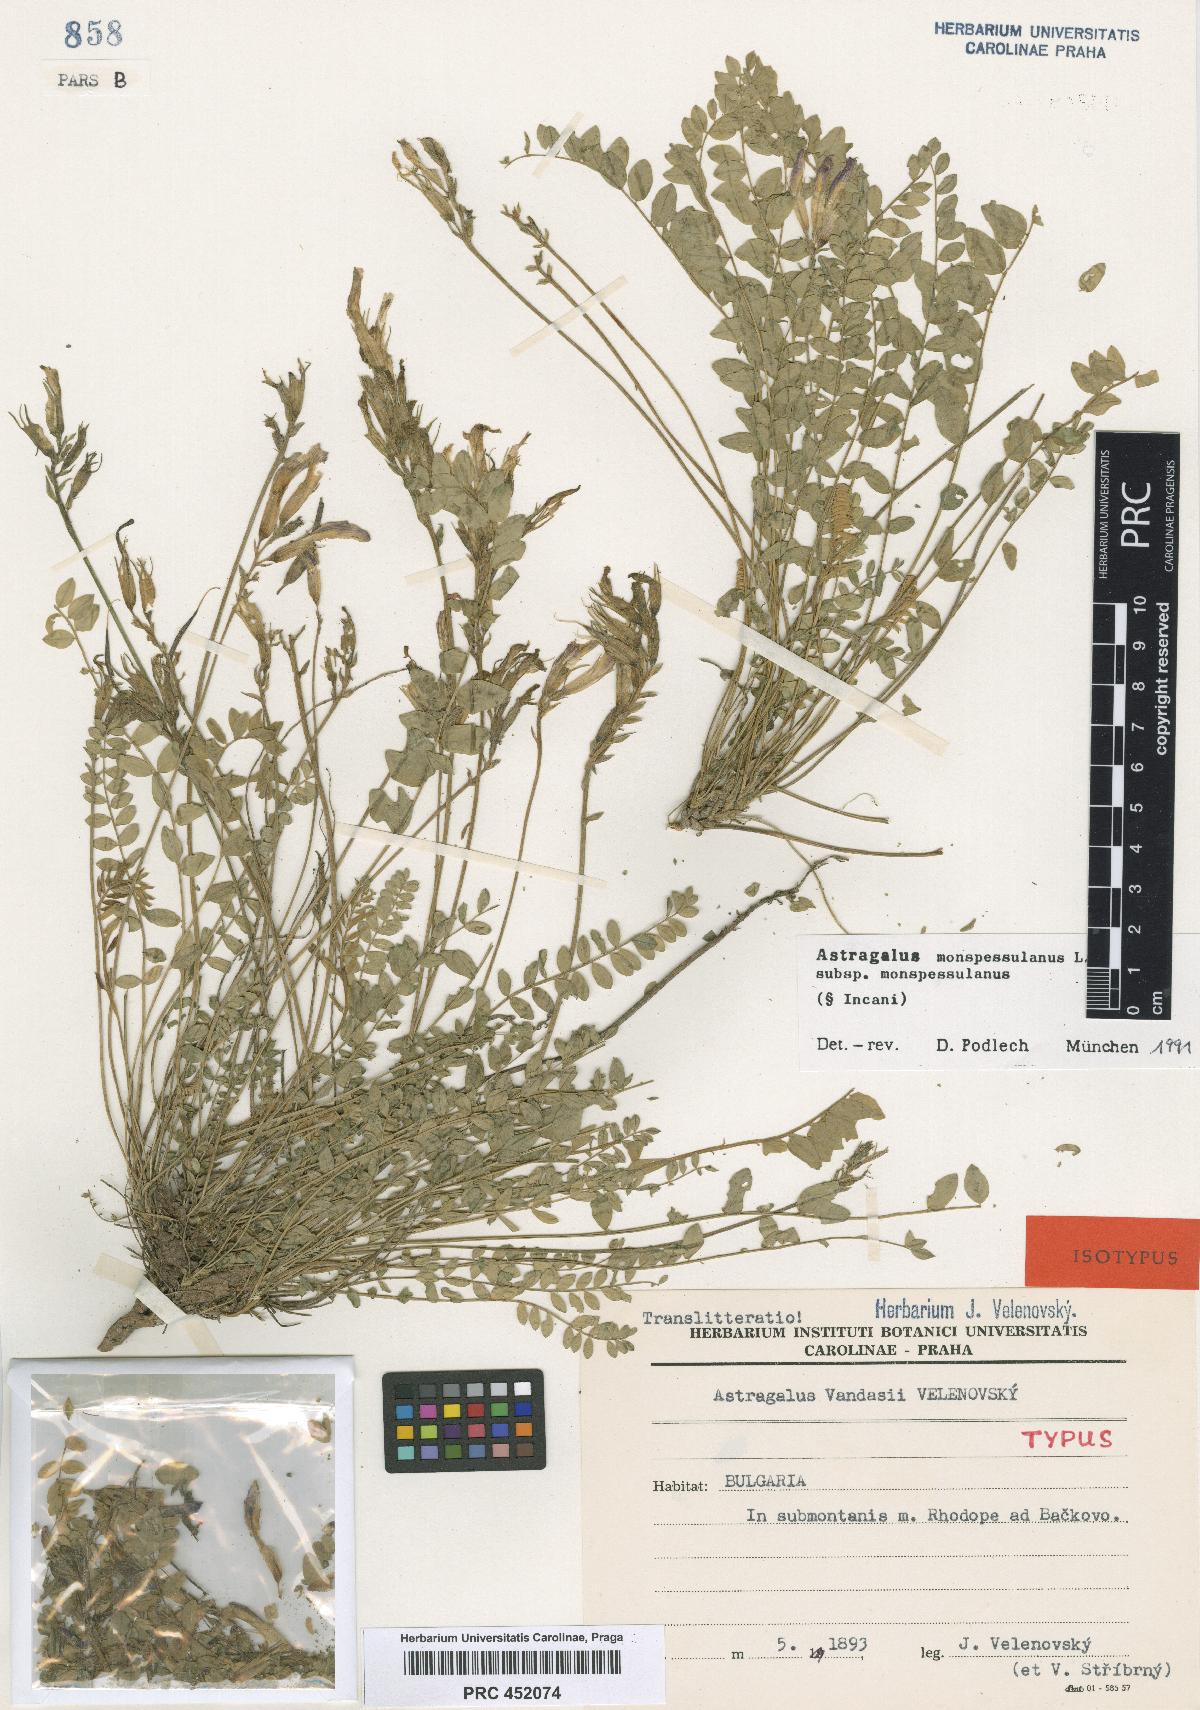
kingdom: Plantae
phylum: Tracheophyta
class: Magnoliopsida
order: Fabales
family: Fabaceae
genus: Astragalus
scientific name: Astragalus monspessulanus
